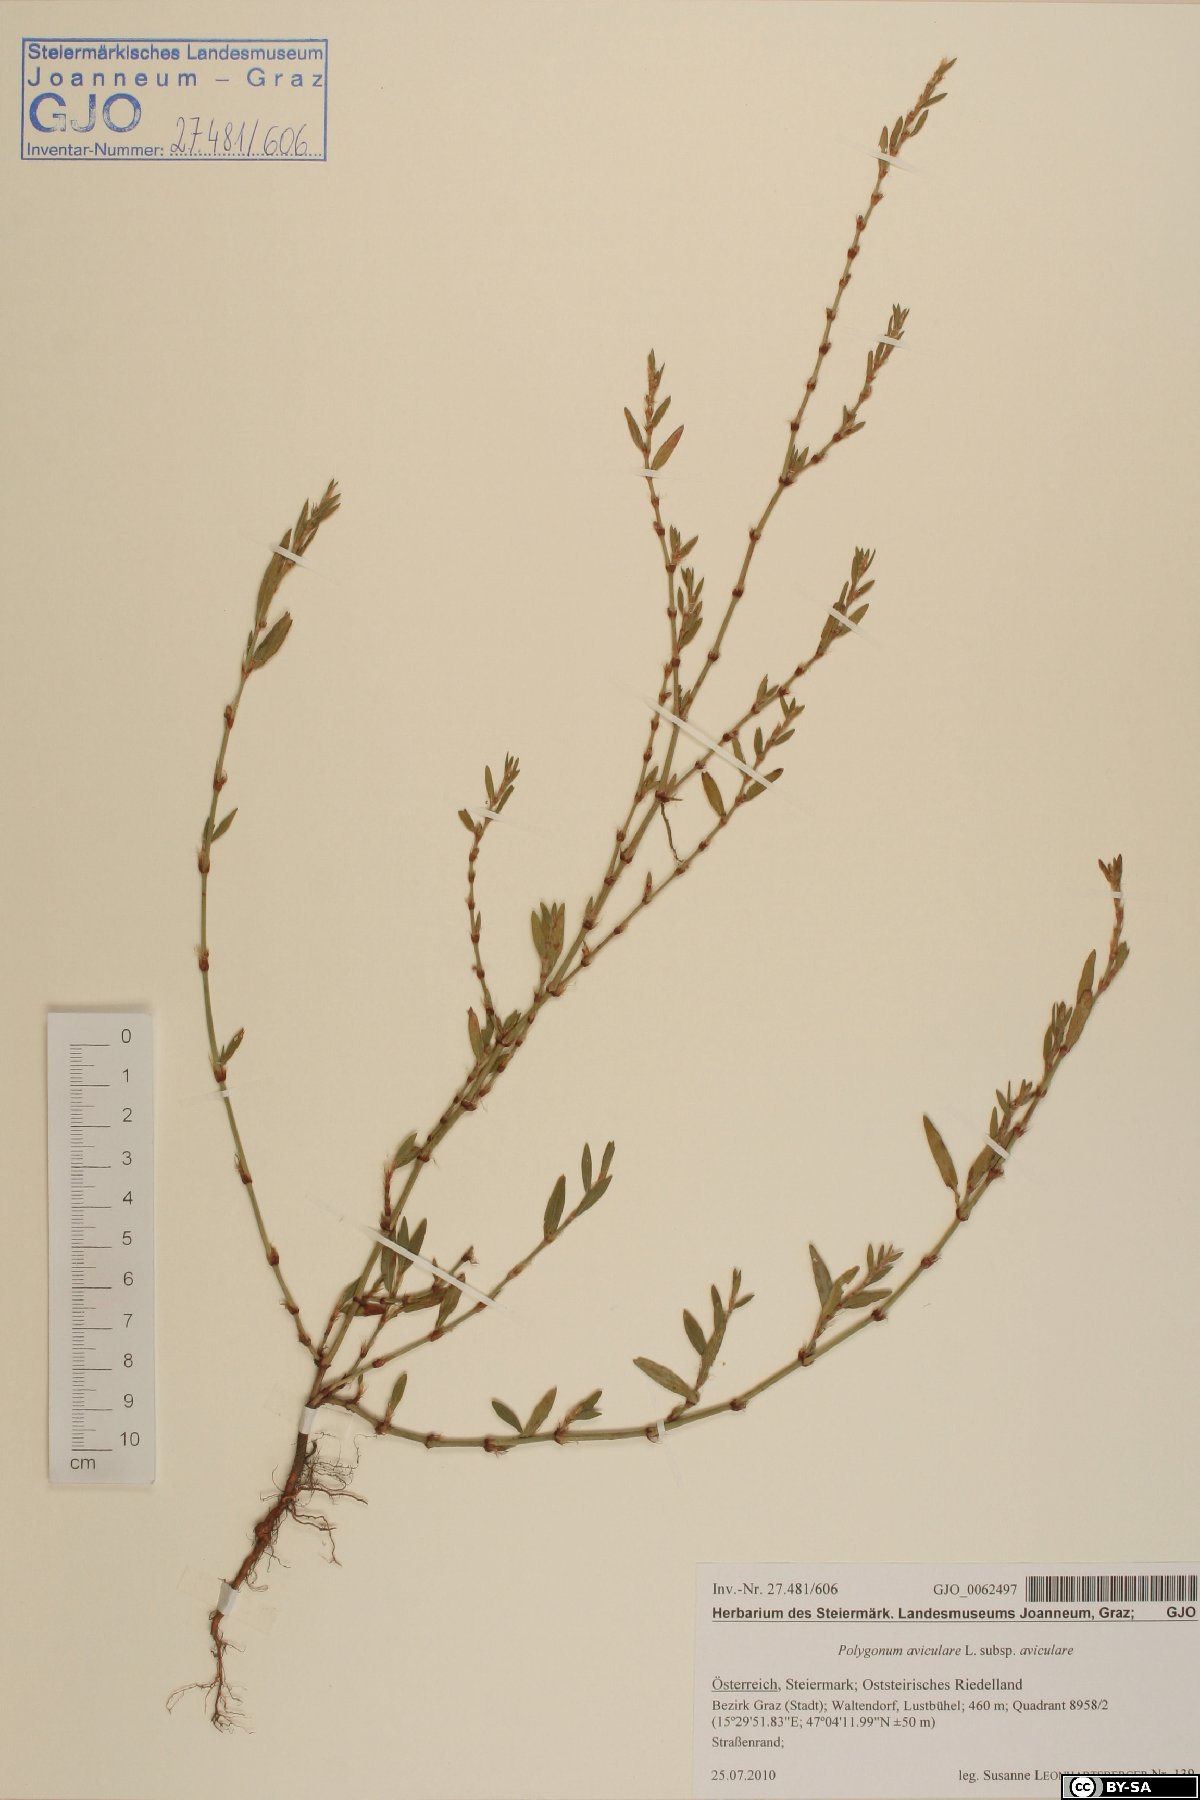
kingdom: Plantae
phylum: Tracheophyta
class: Magnoliopsida
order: Caryophyllales
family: Polygonaceae
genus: Polygonum
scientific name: Polygonum aviculare
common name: Prostrate knotweed
